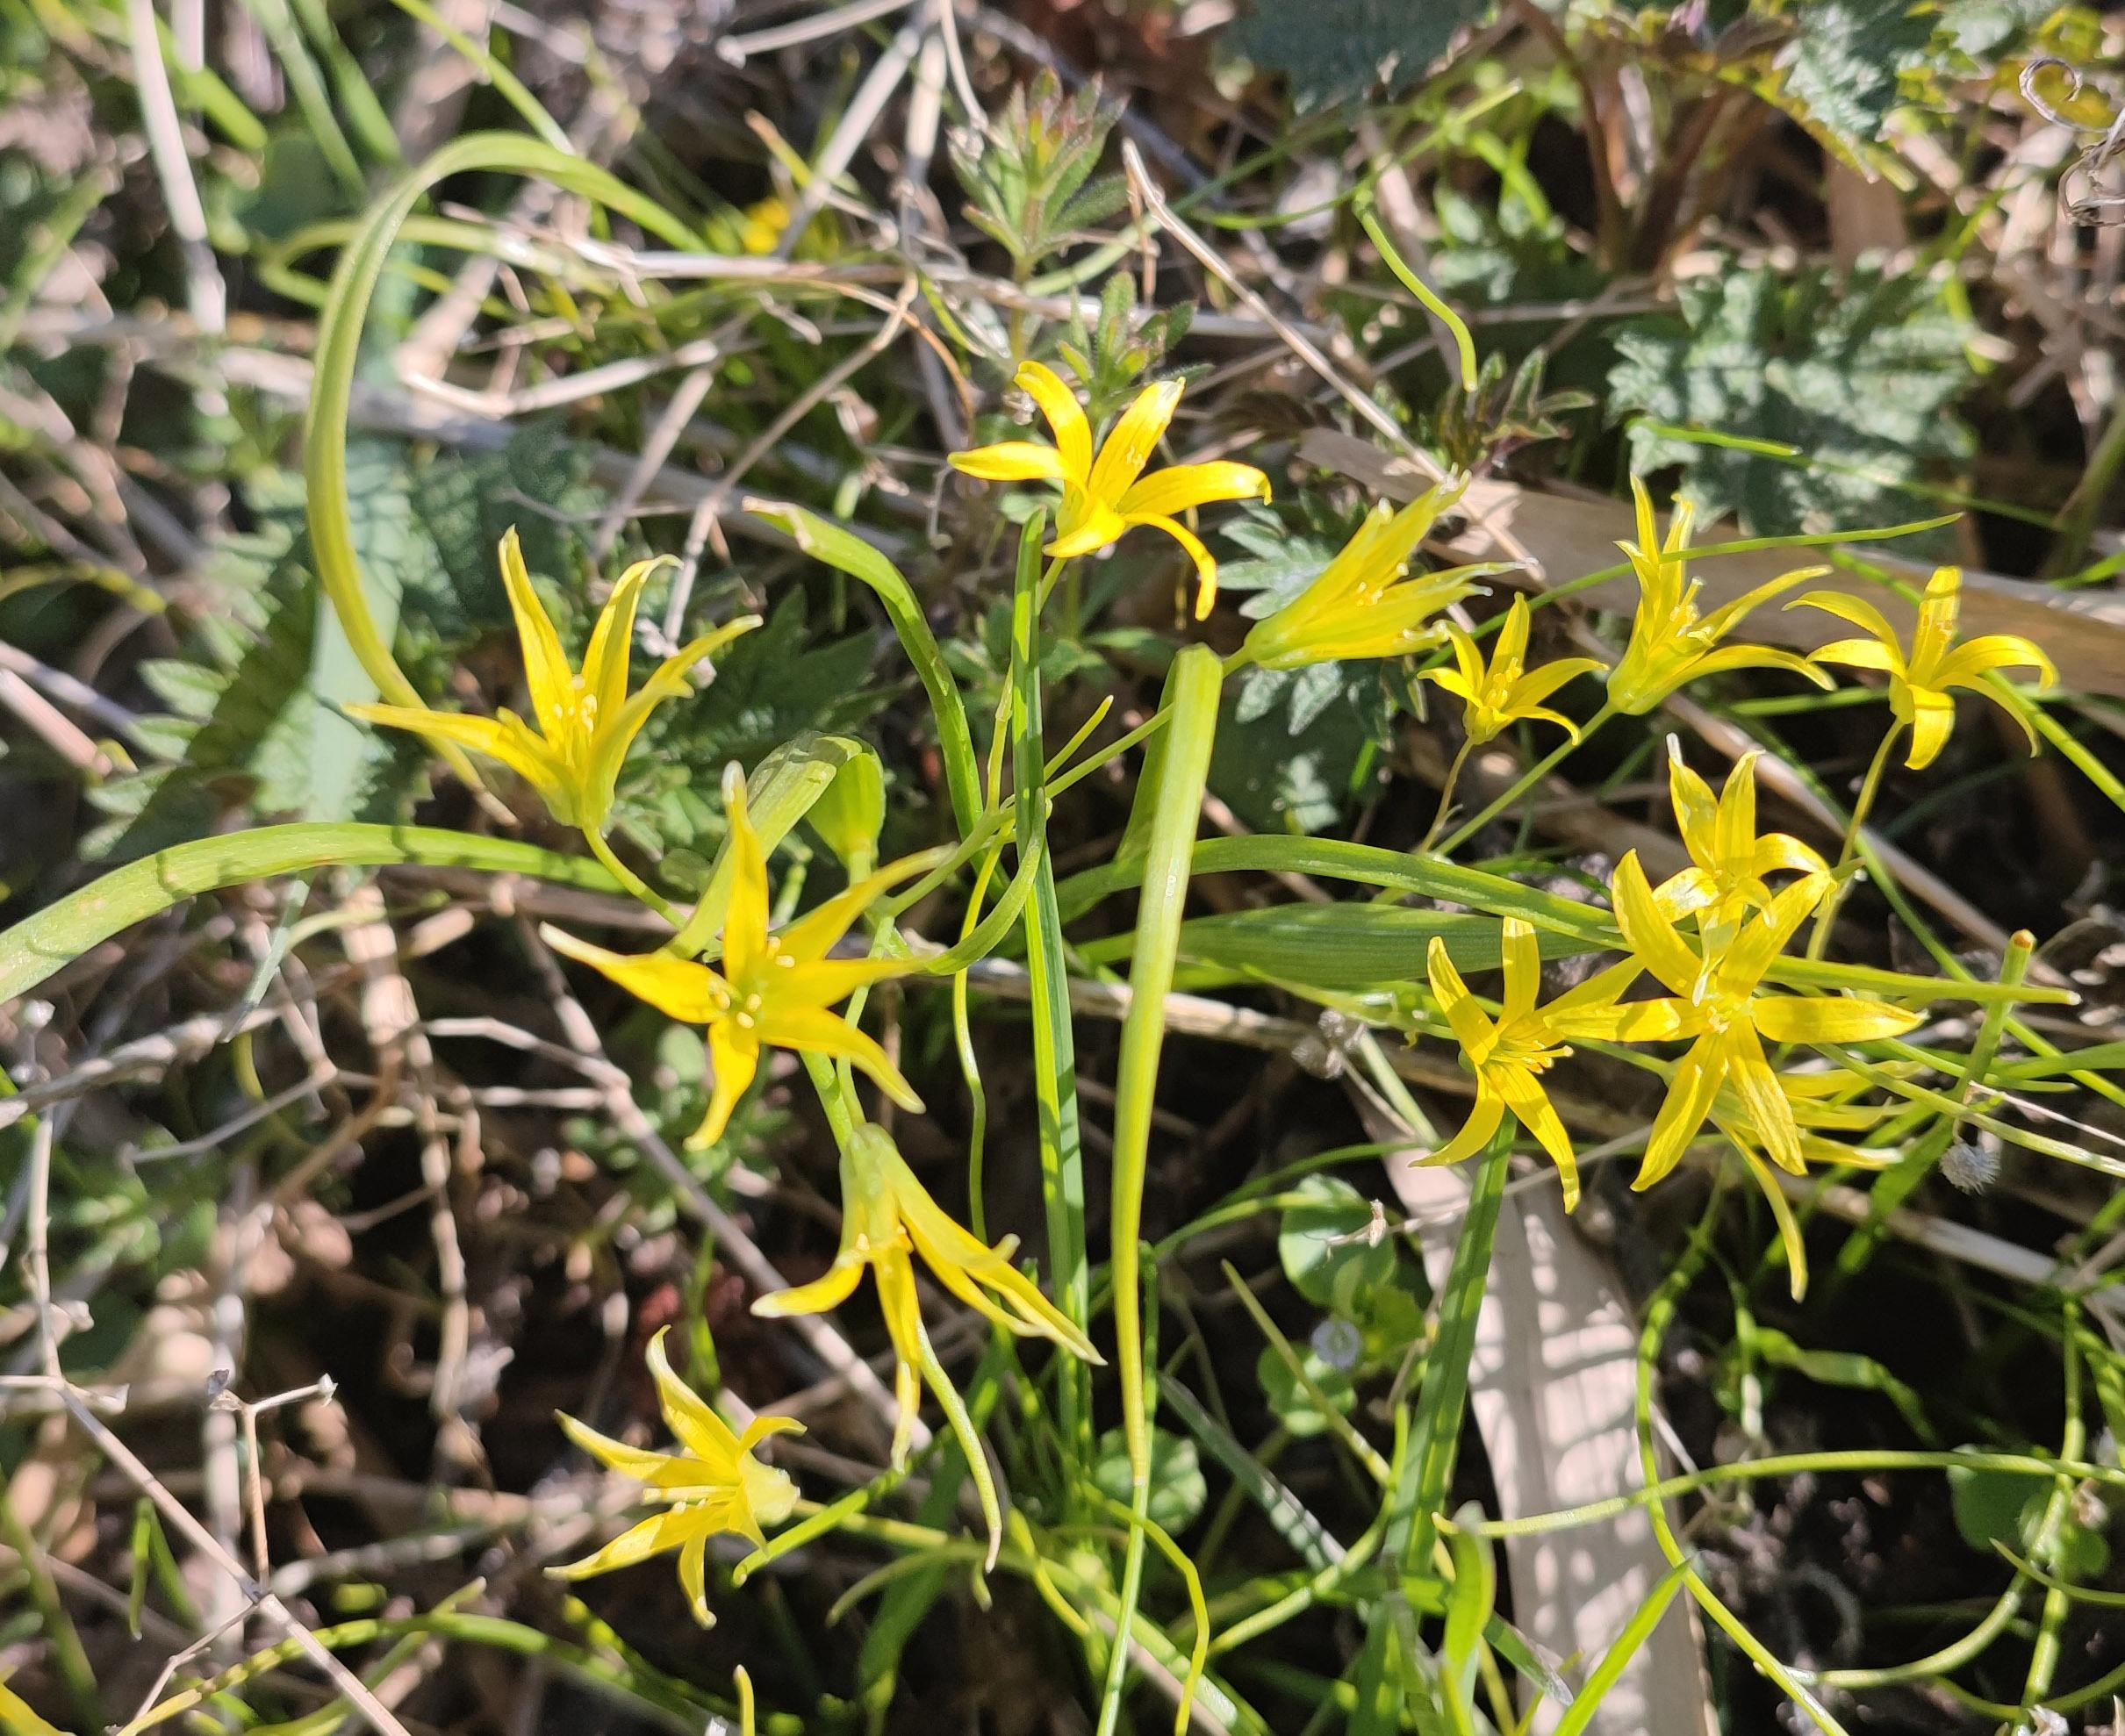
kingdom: Plantae
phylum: Tracheophyta
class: Liliopsida
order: Liliales
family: Liliaceae
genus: Gagea
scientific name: Gagea minima
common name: Liden guldstjerne
